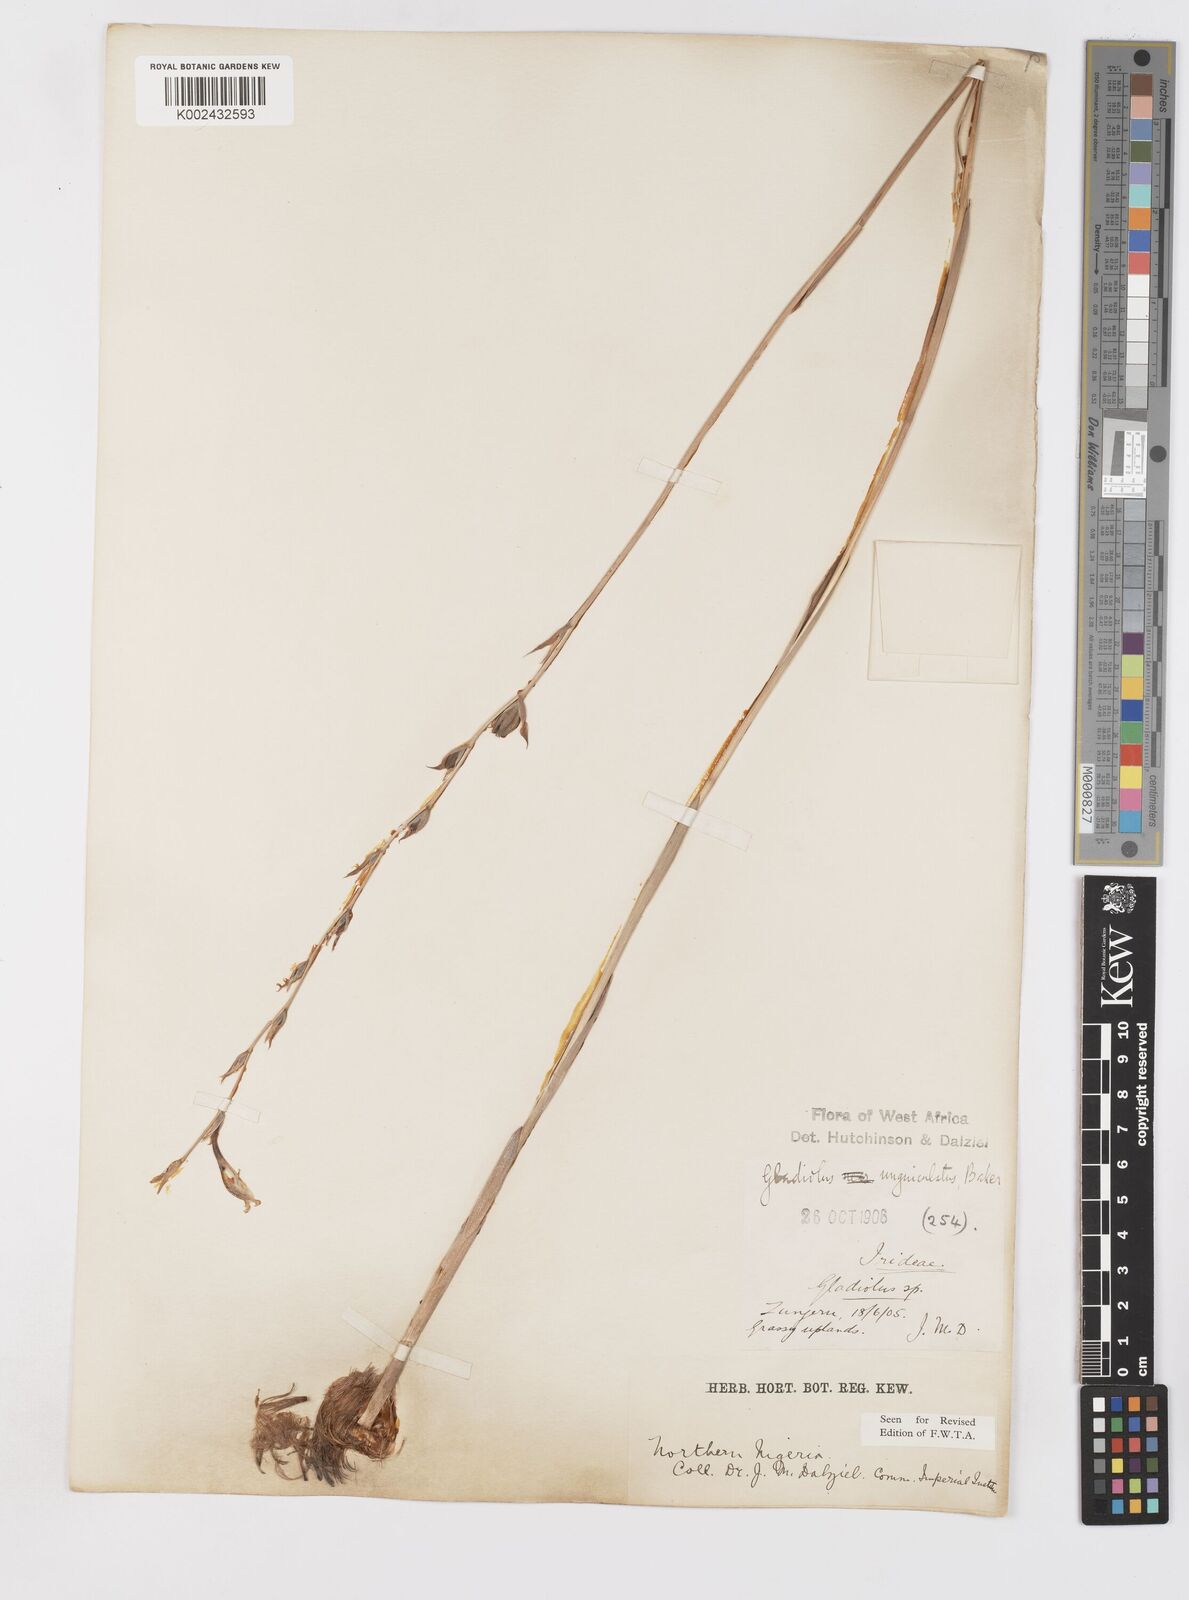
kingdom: Plantae
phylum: Tracheophyta
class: Liliopsida
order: Asparagales
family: Iridaceae
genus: Gladiolus
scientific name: Gladiolus unguiculatus
